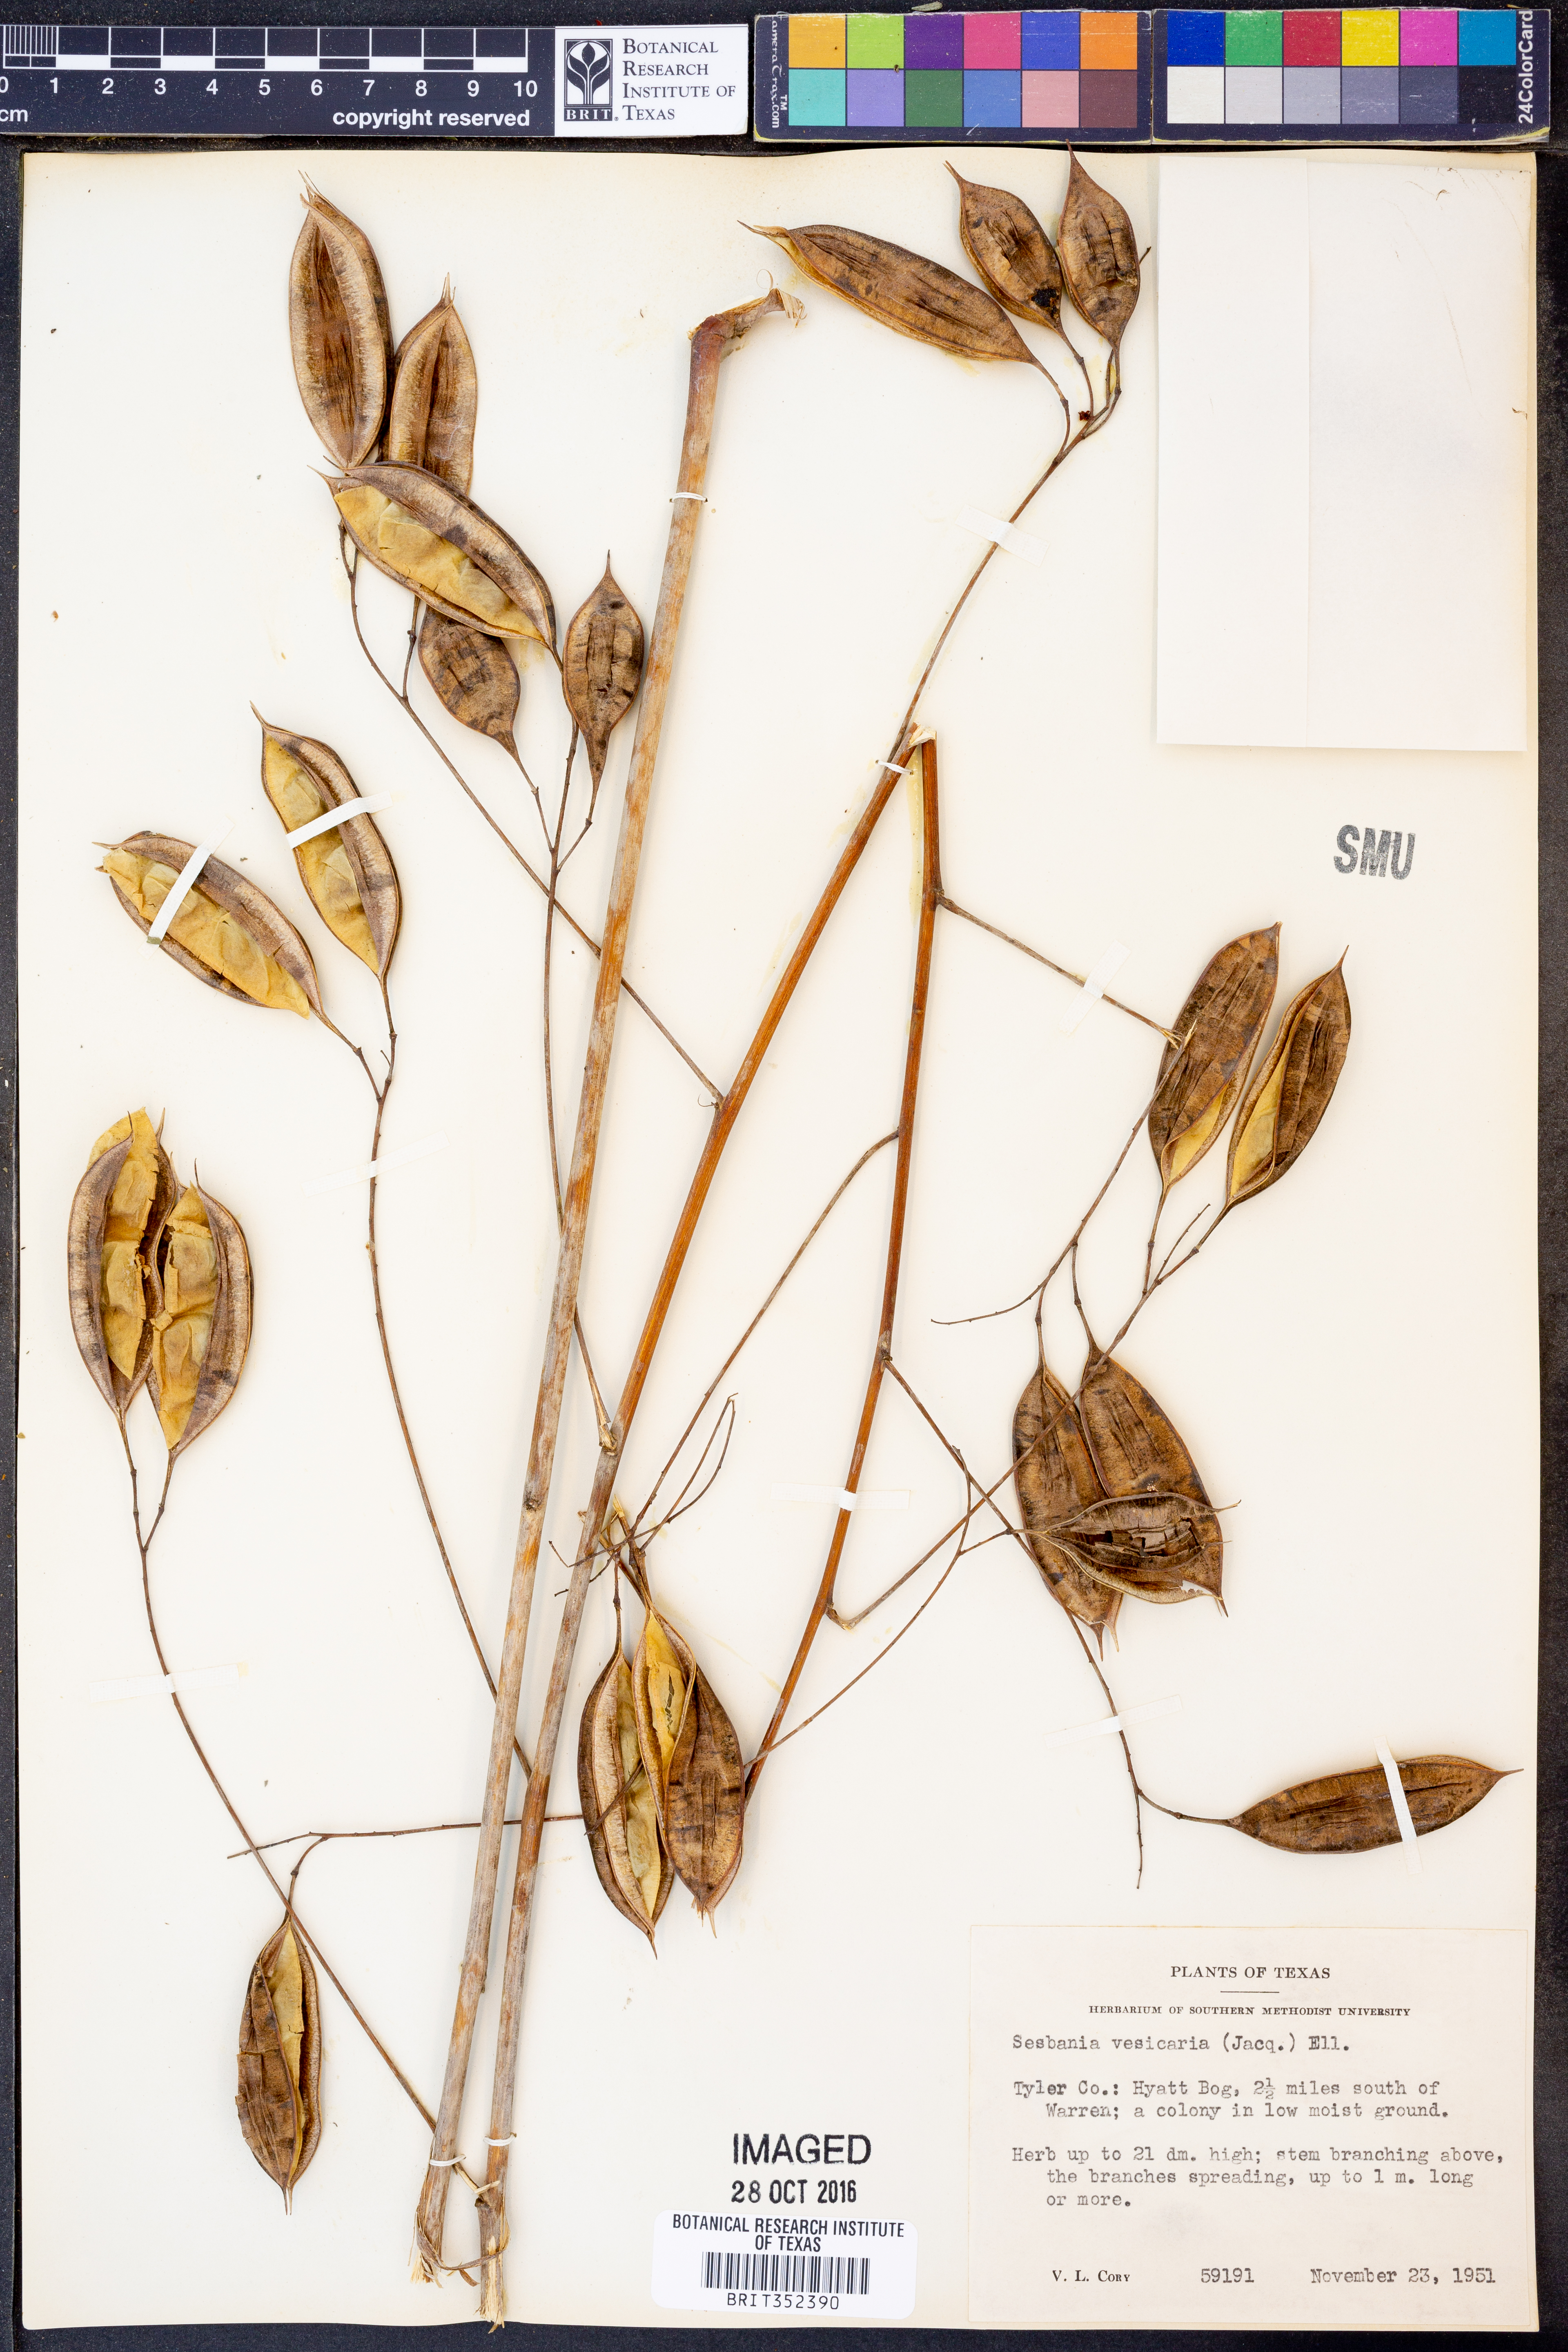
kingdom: Plantae
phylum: Tracheophyta
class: Magnoliopsida
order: Fabales
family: Fabaceae
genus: Sesbania
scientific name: Sesbania vesicaria
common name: Bagpod
